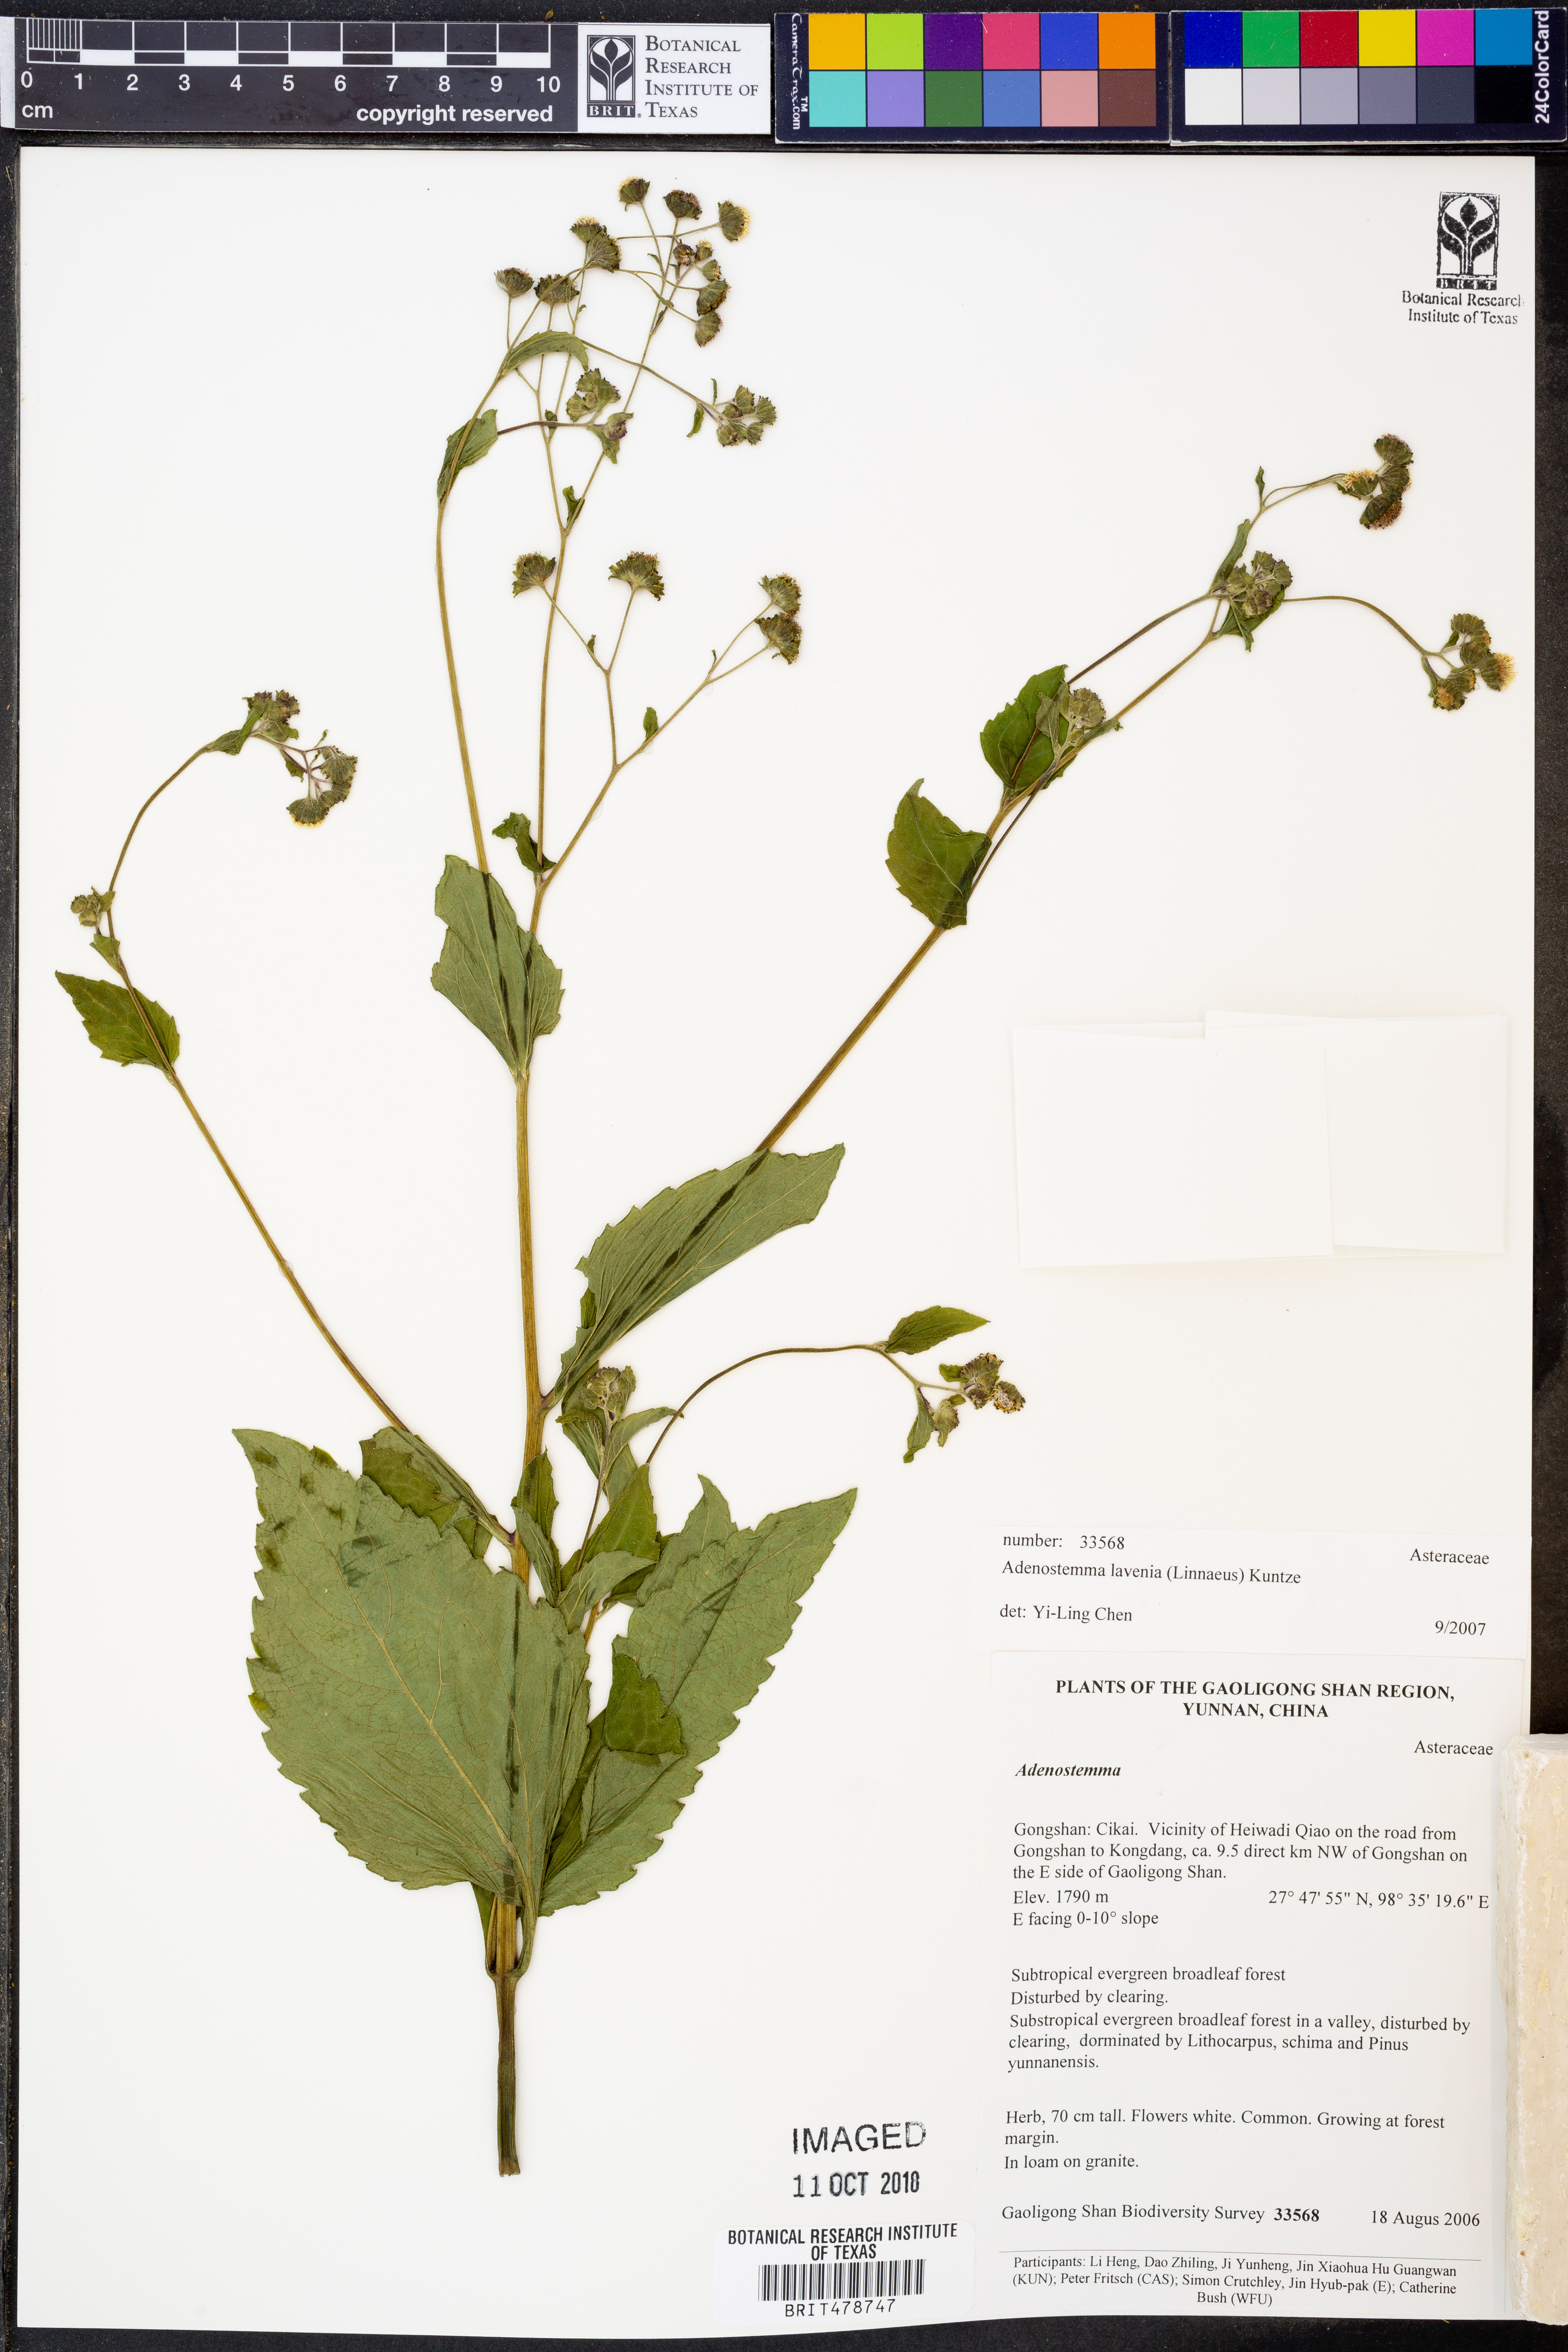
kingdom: Plantae
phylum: Tracheophyta
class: Magnoliopsida
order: Asterales
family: Asteraceae
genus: Adenostemma
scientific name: Adenostemma lavenia
